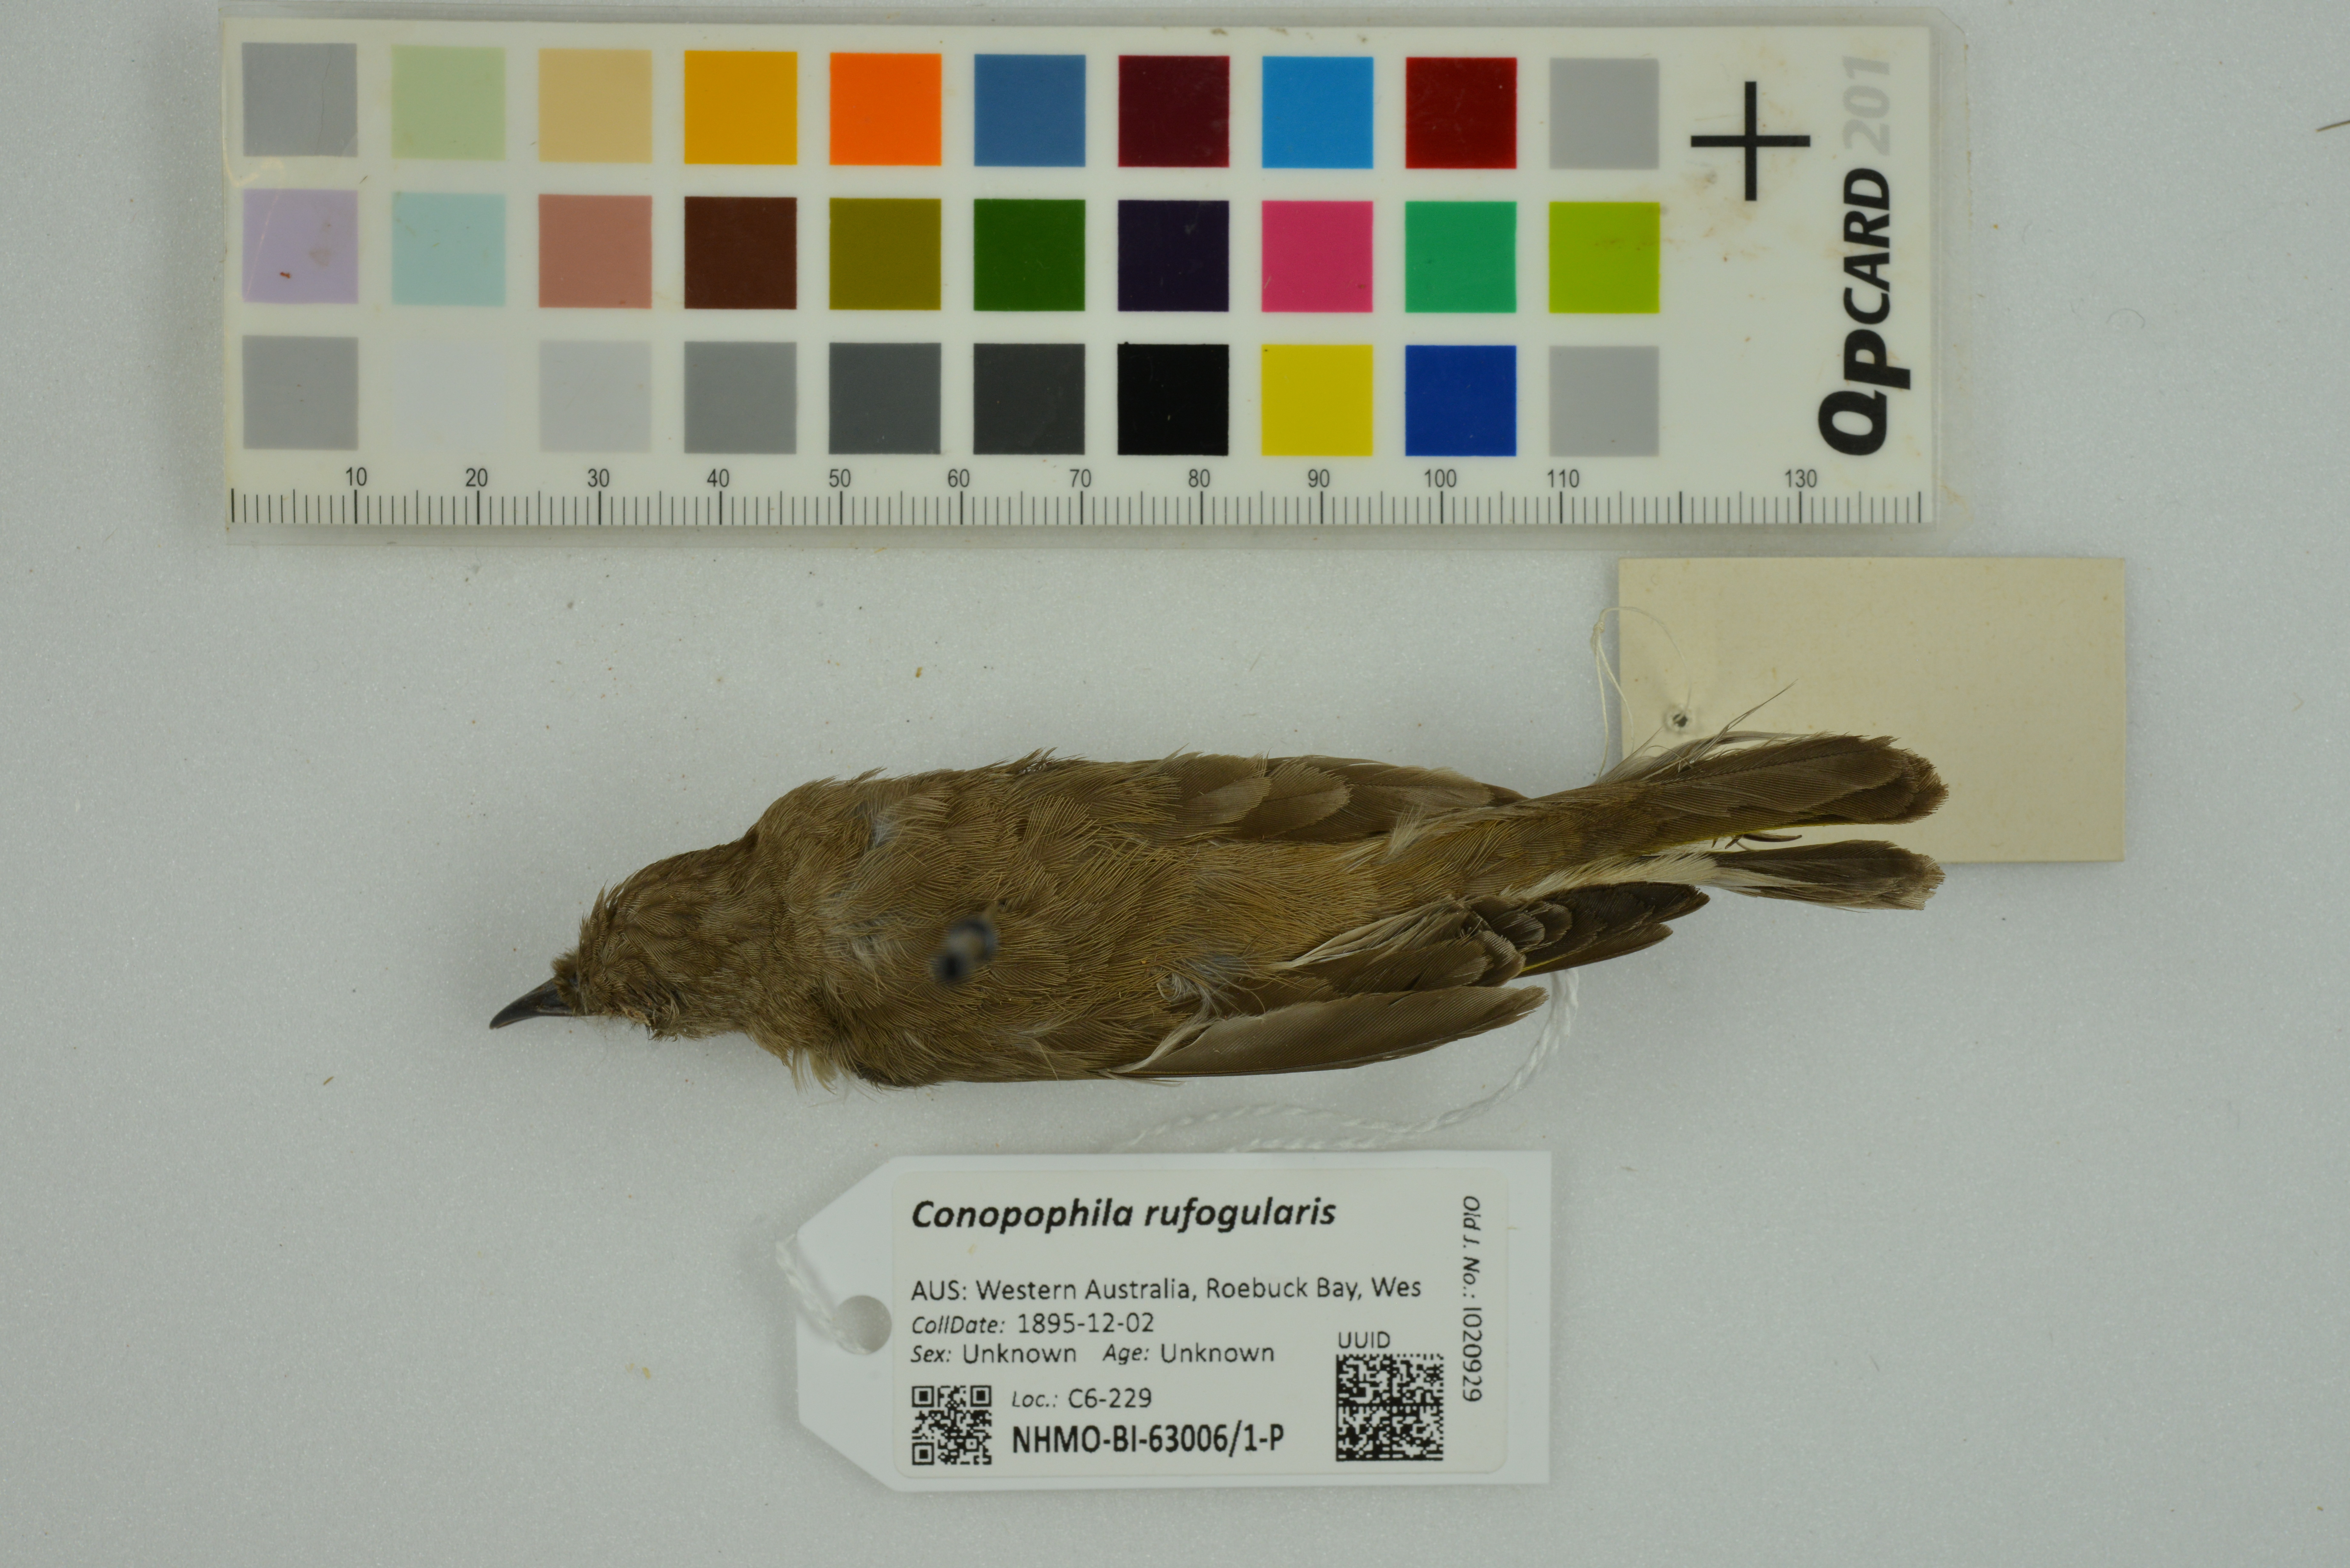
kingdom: Animalia
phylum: Chordata
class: Aves
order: Passeriformes
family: Meliphagidae
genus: Conopophila
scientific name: Conopophila rufogularis
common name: Rufous-throated honeyeater
